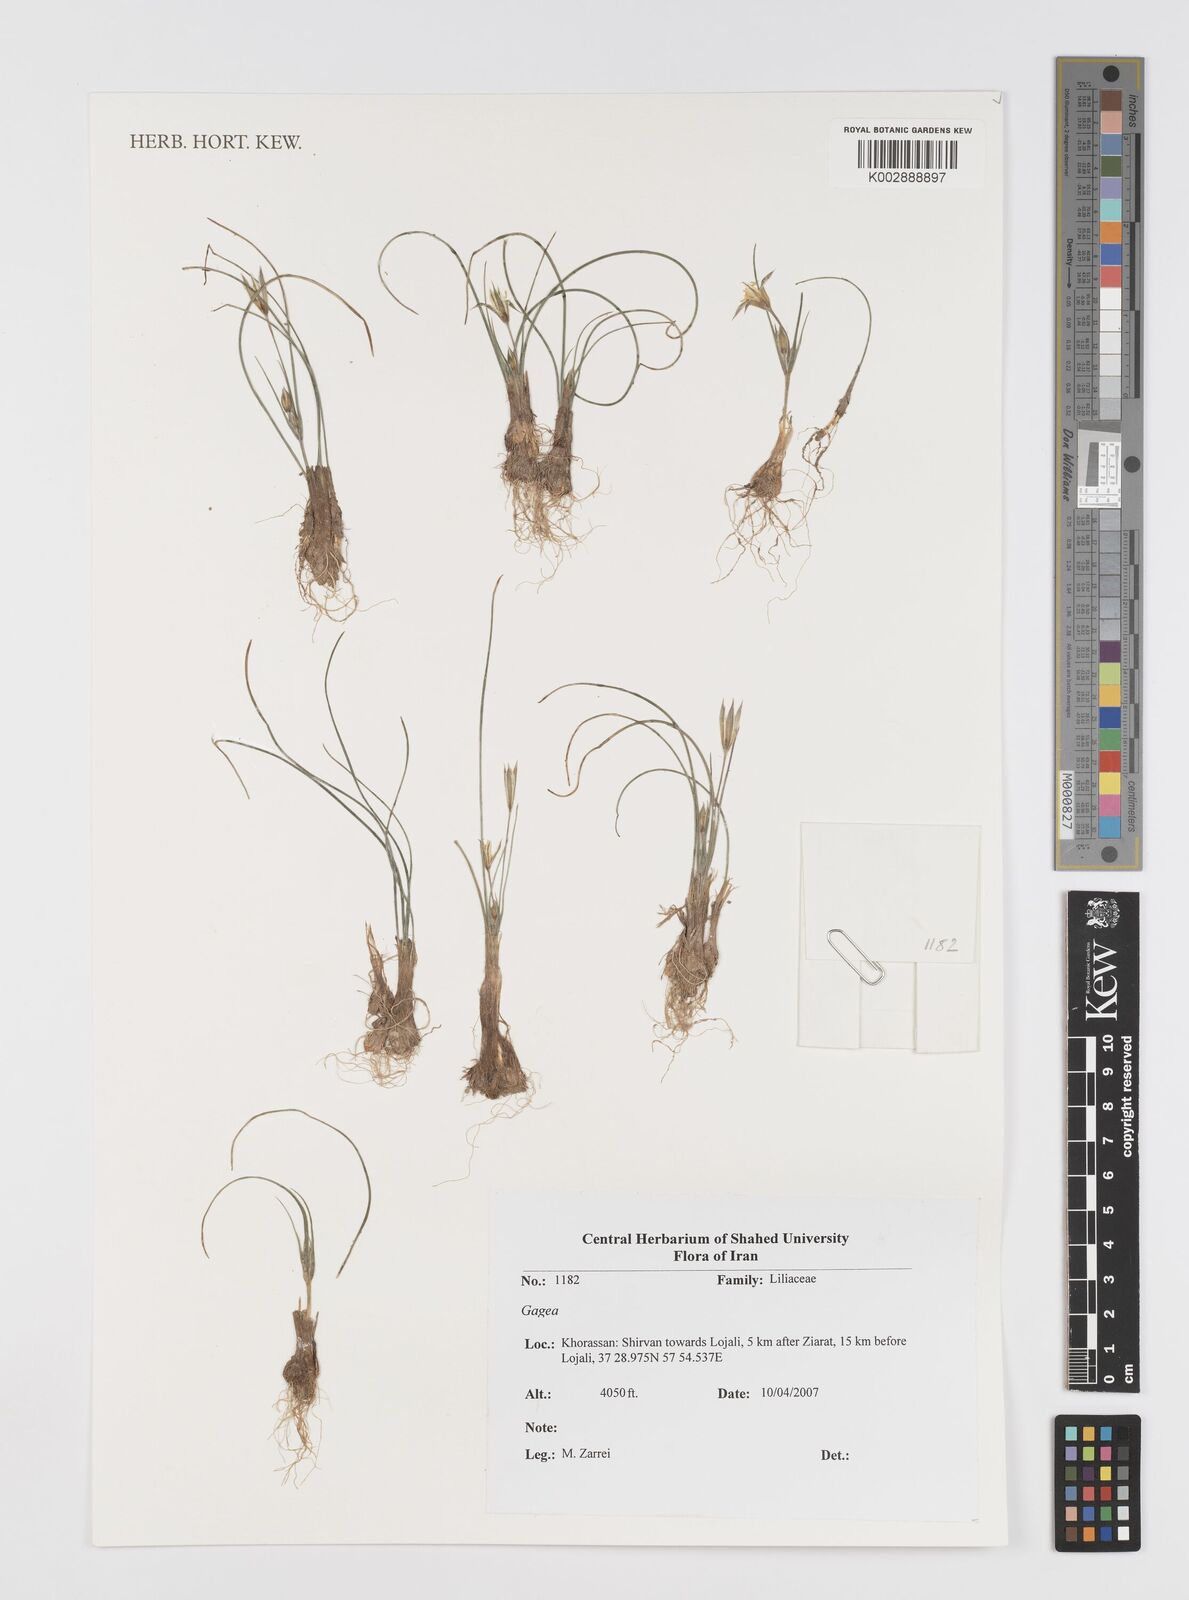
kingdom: Plantae
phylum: Tracheophyta
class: Liliopsida
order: Liliales
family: Liliaceae
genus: Gagea
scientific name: Gagea
